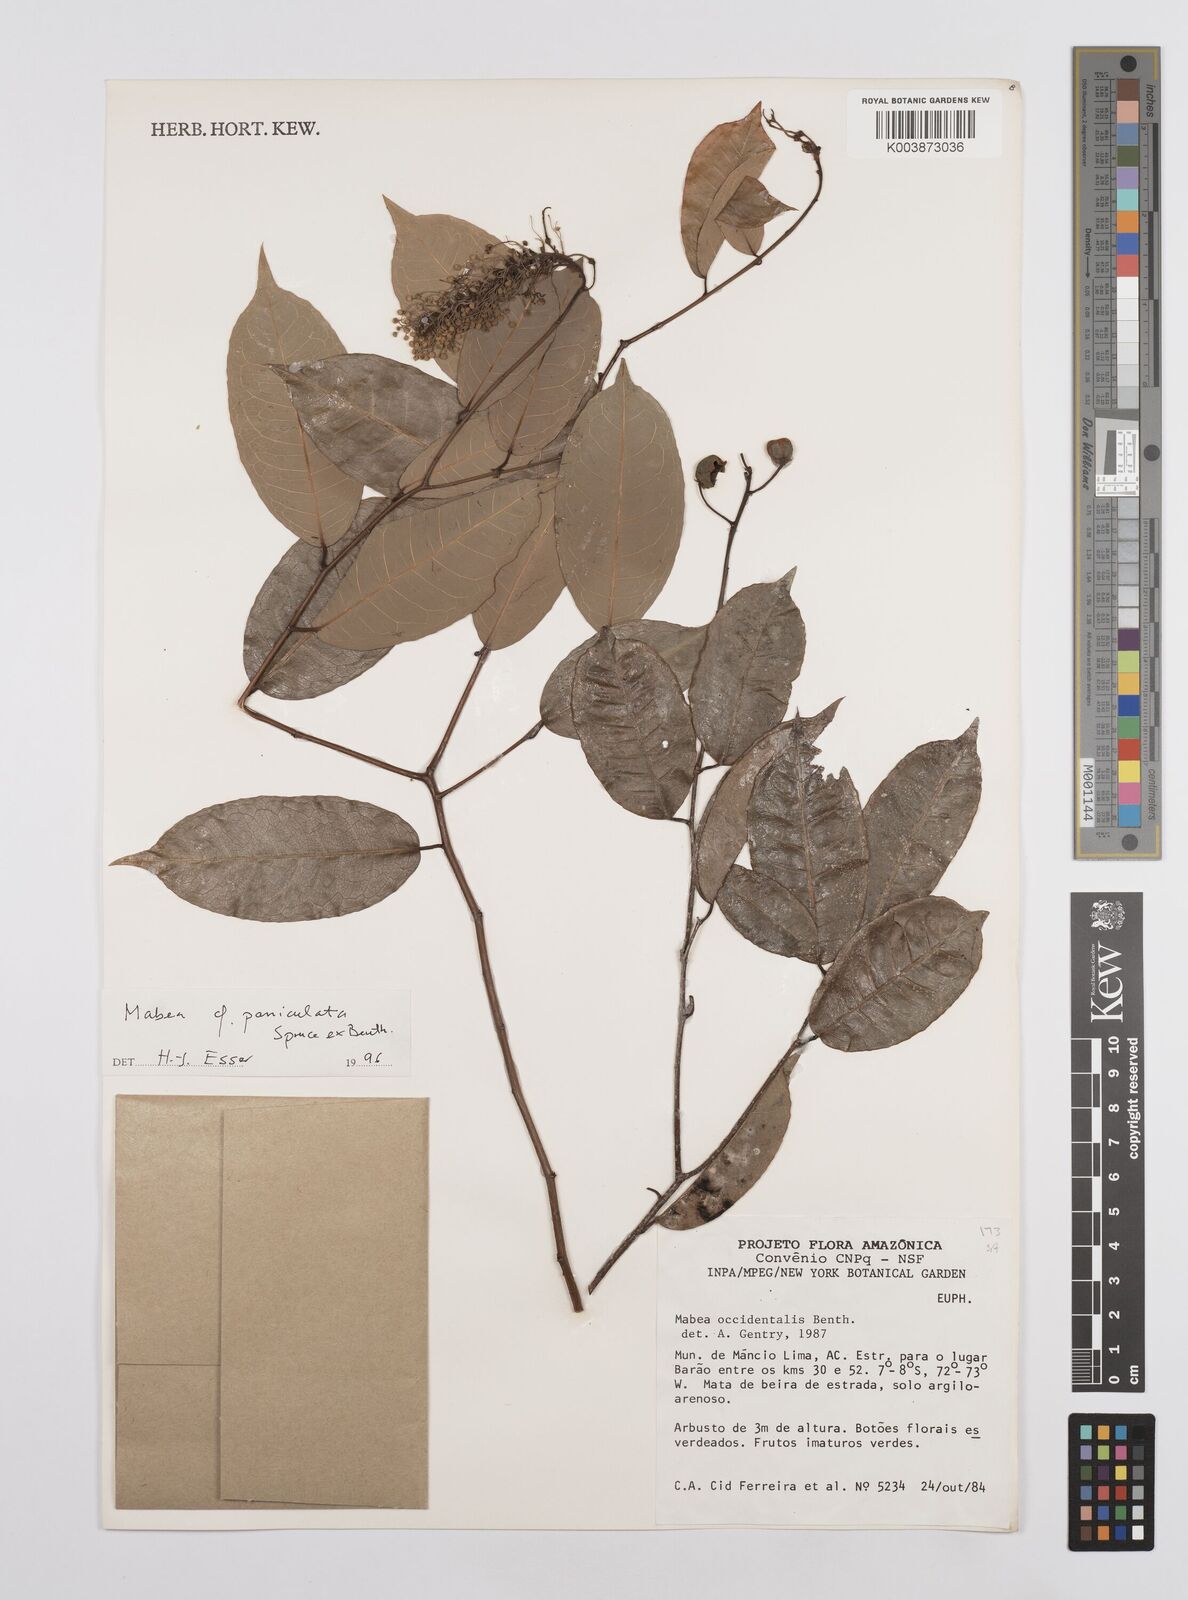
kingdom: Plantae
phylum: Tracheophyta
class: Magnoliopsida
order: Malpighiales
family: Euphorbiaceae
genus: Mabea
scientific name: Mabea paniculata
